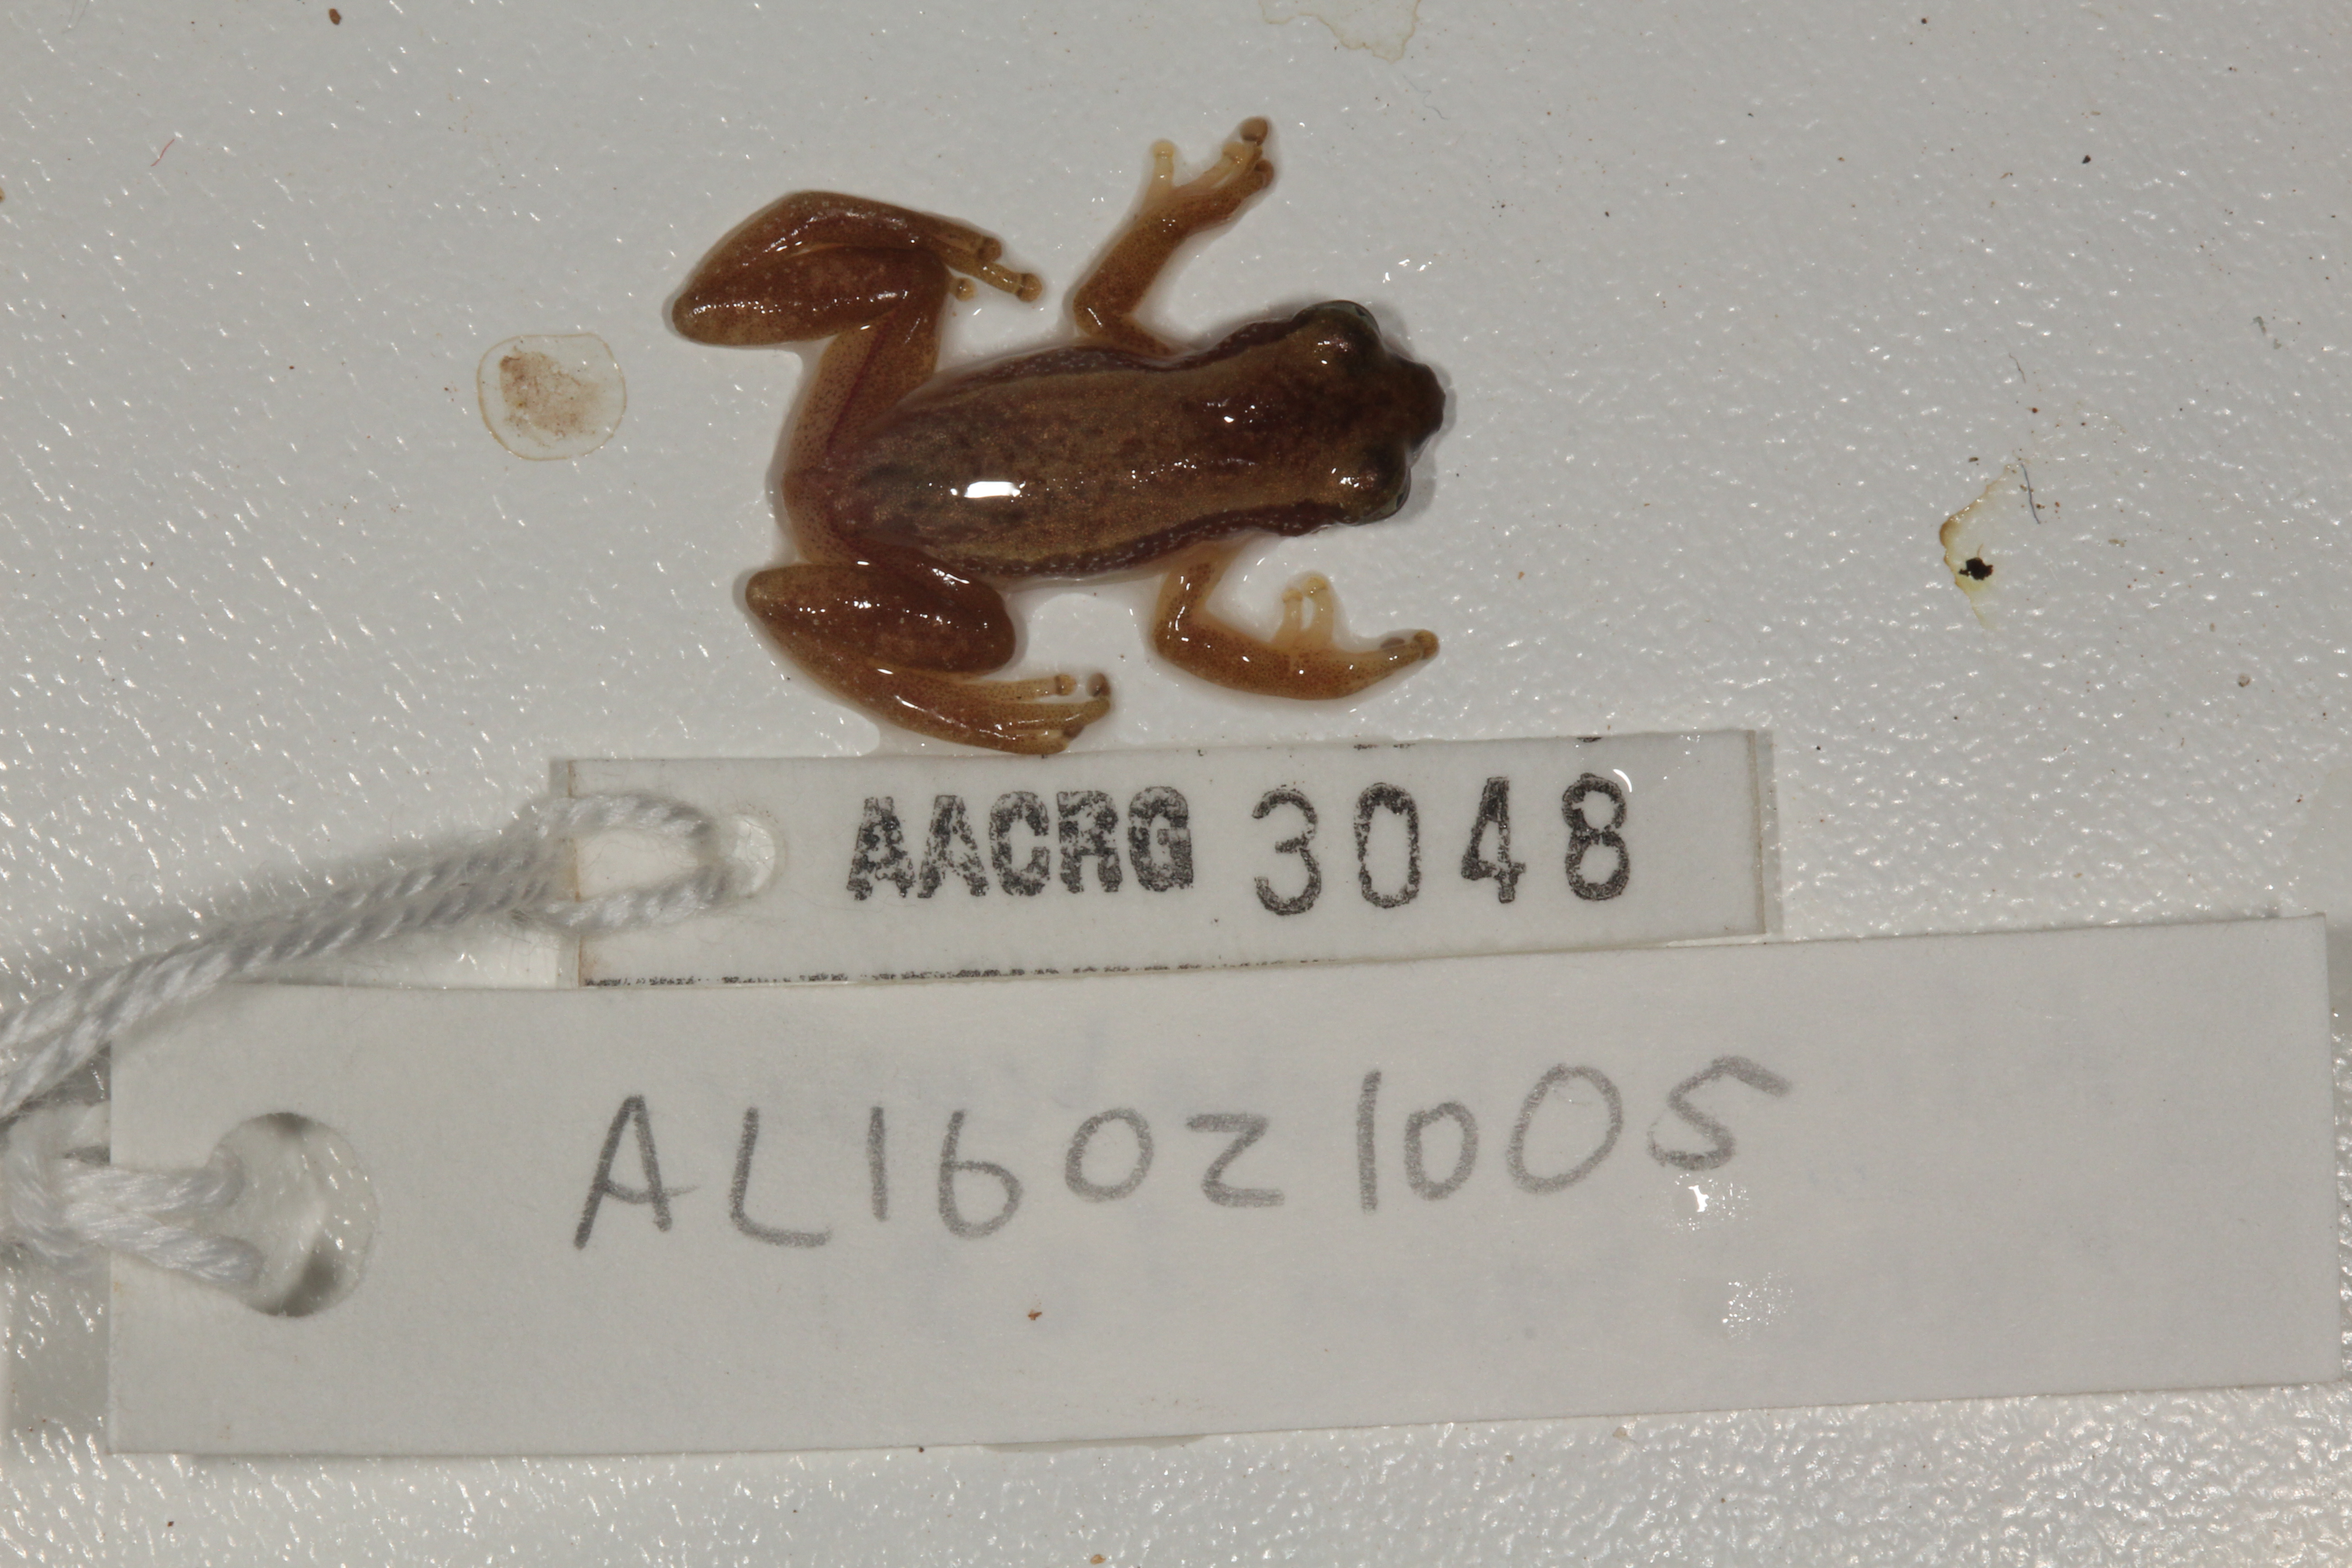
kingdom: Animalia
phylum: Chordata
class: Amphibia
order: Anura
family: Hyperoliidae
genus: Afrixalus
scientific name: Afrixalus delicatus
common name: Delicate leaf-folding frog
